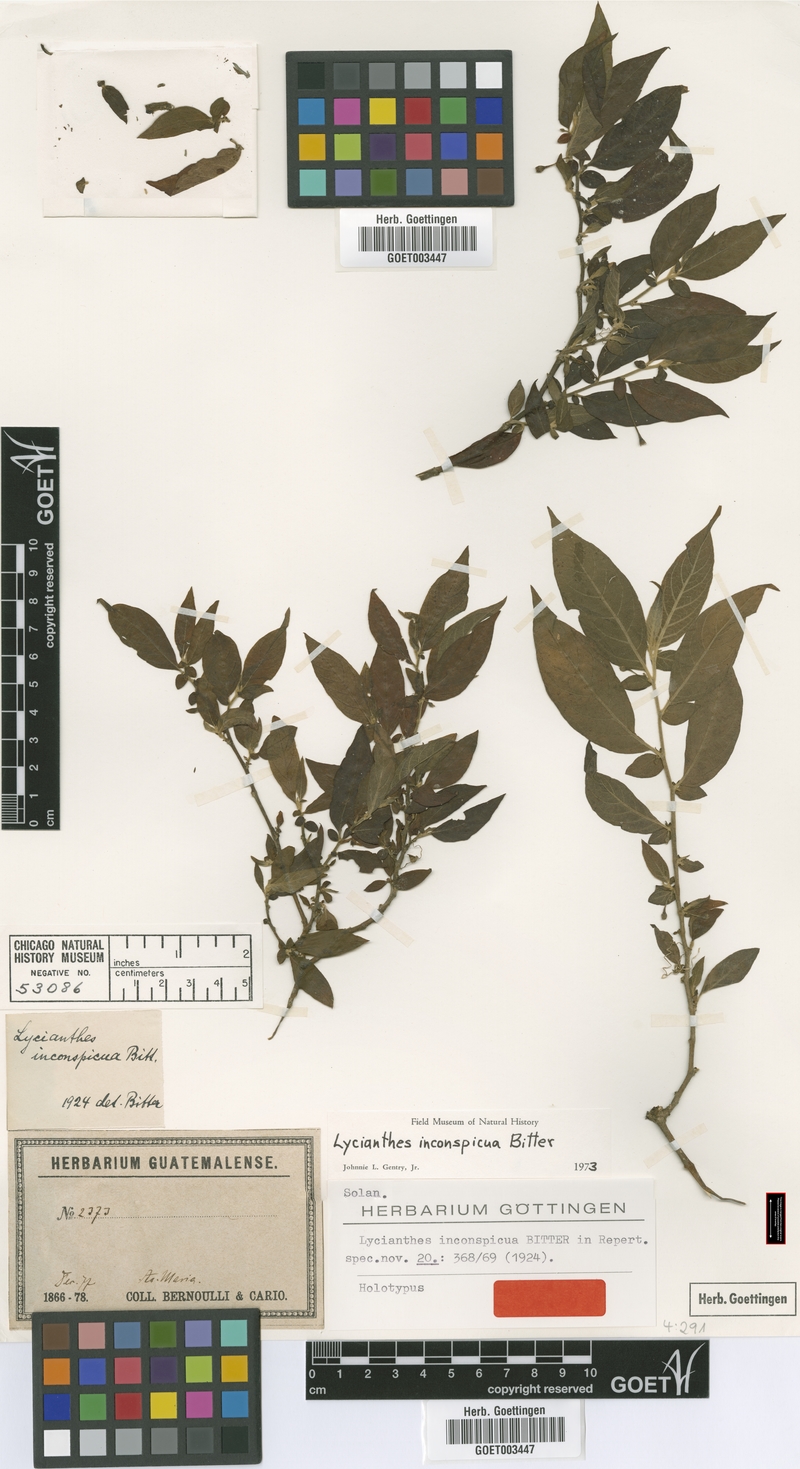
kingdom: Plantae
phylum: Tracheophyta
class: Magnoliopsida
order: Solanales
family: Solanaceae
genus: Lycianthes
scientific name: Lycianthes inconspicua
